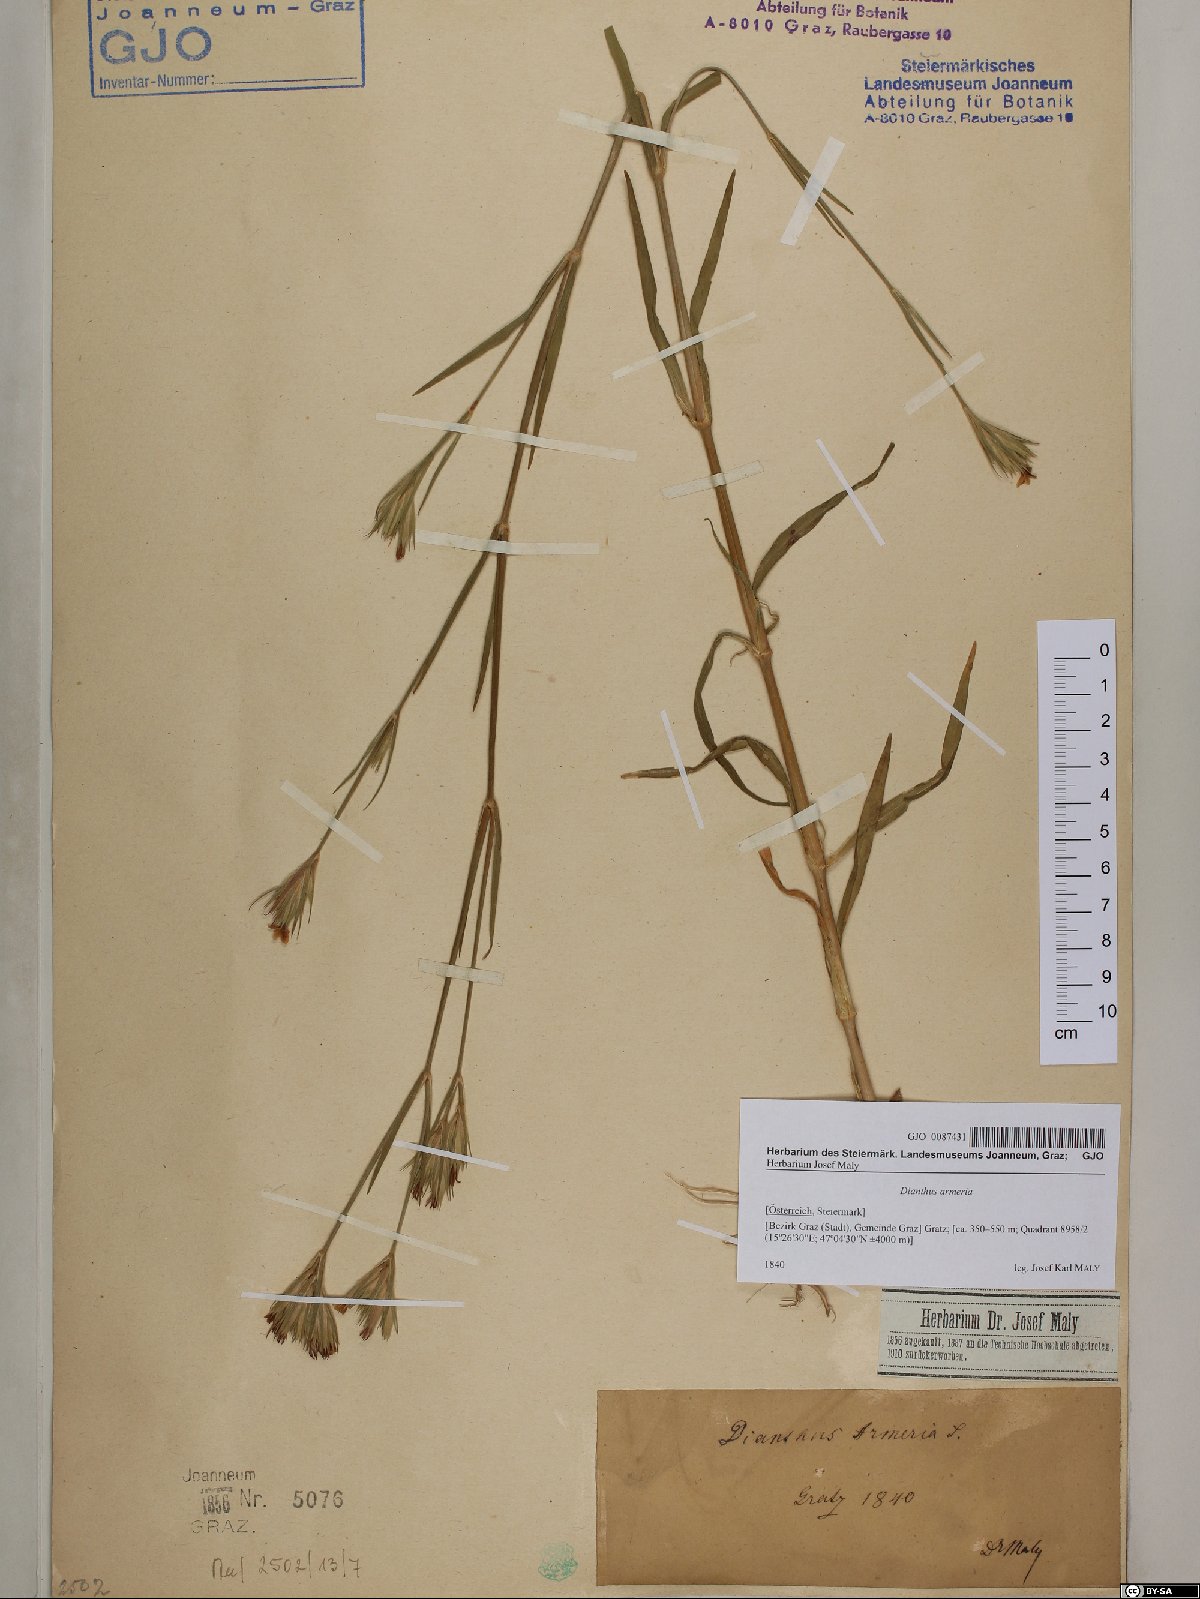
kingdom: Plantae
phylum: Tracheophyta
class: Magnoliopsida
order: Caryophyllales
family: Caryophyllaceae
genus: Dianthus
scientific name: Dianthus armeria
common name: Deptford pink
